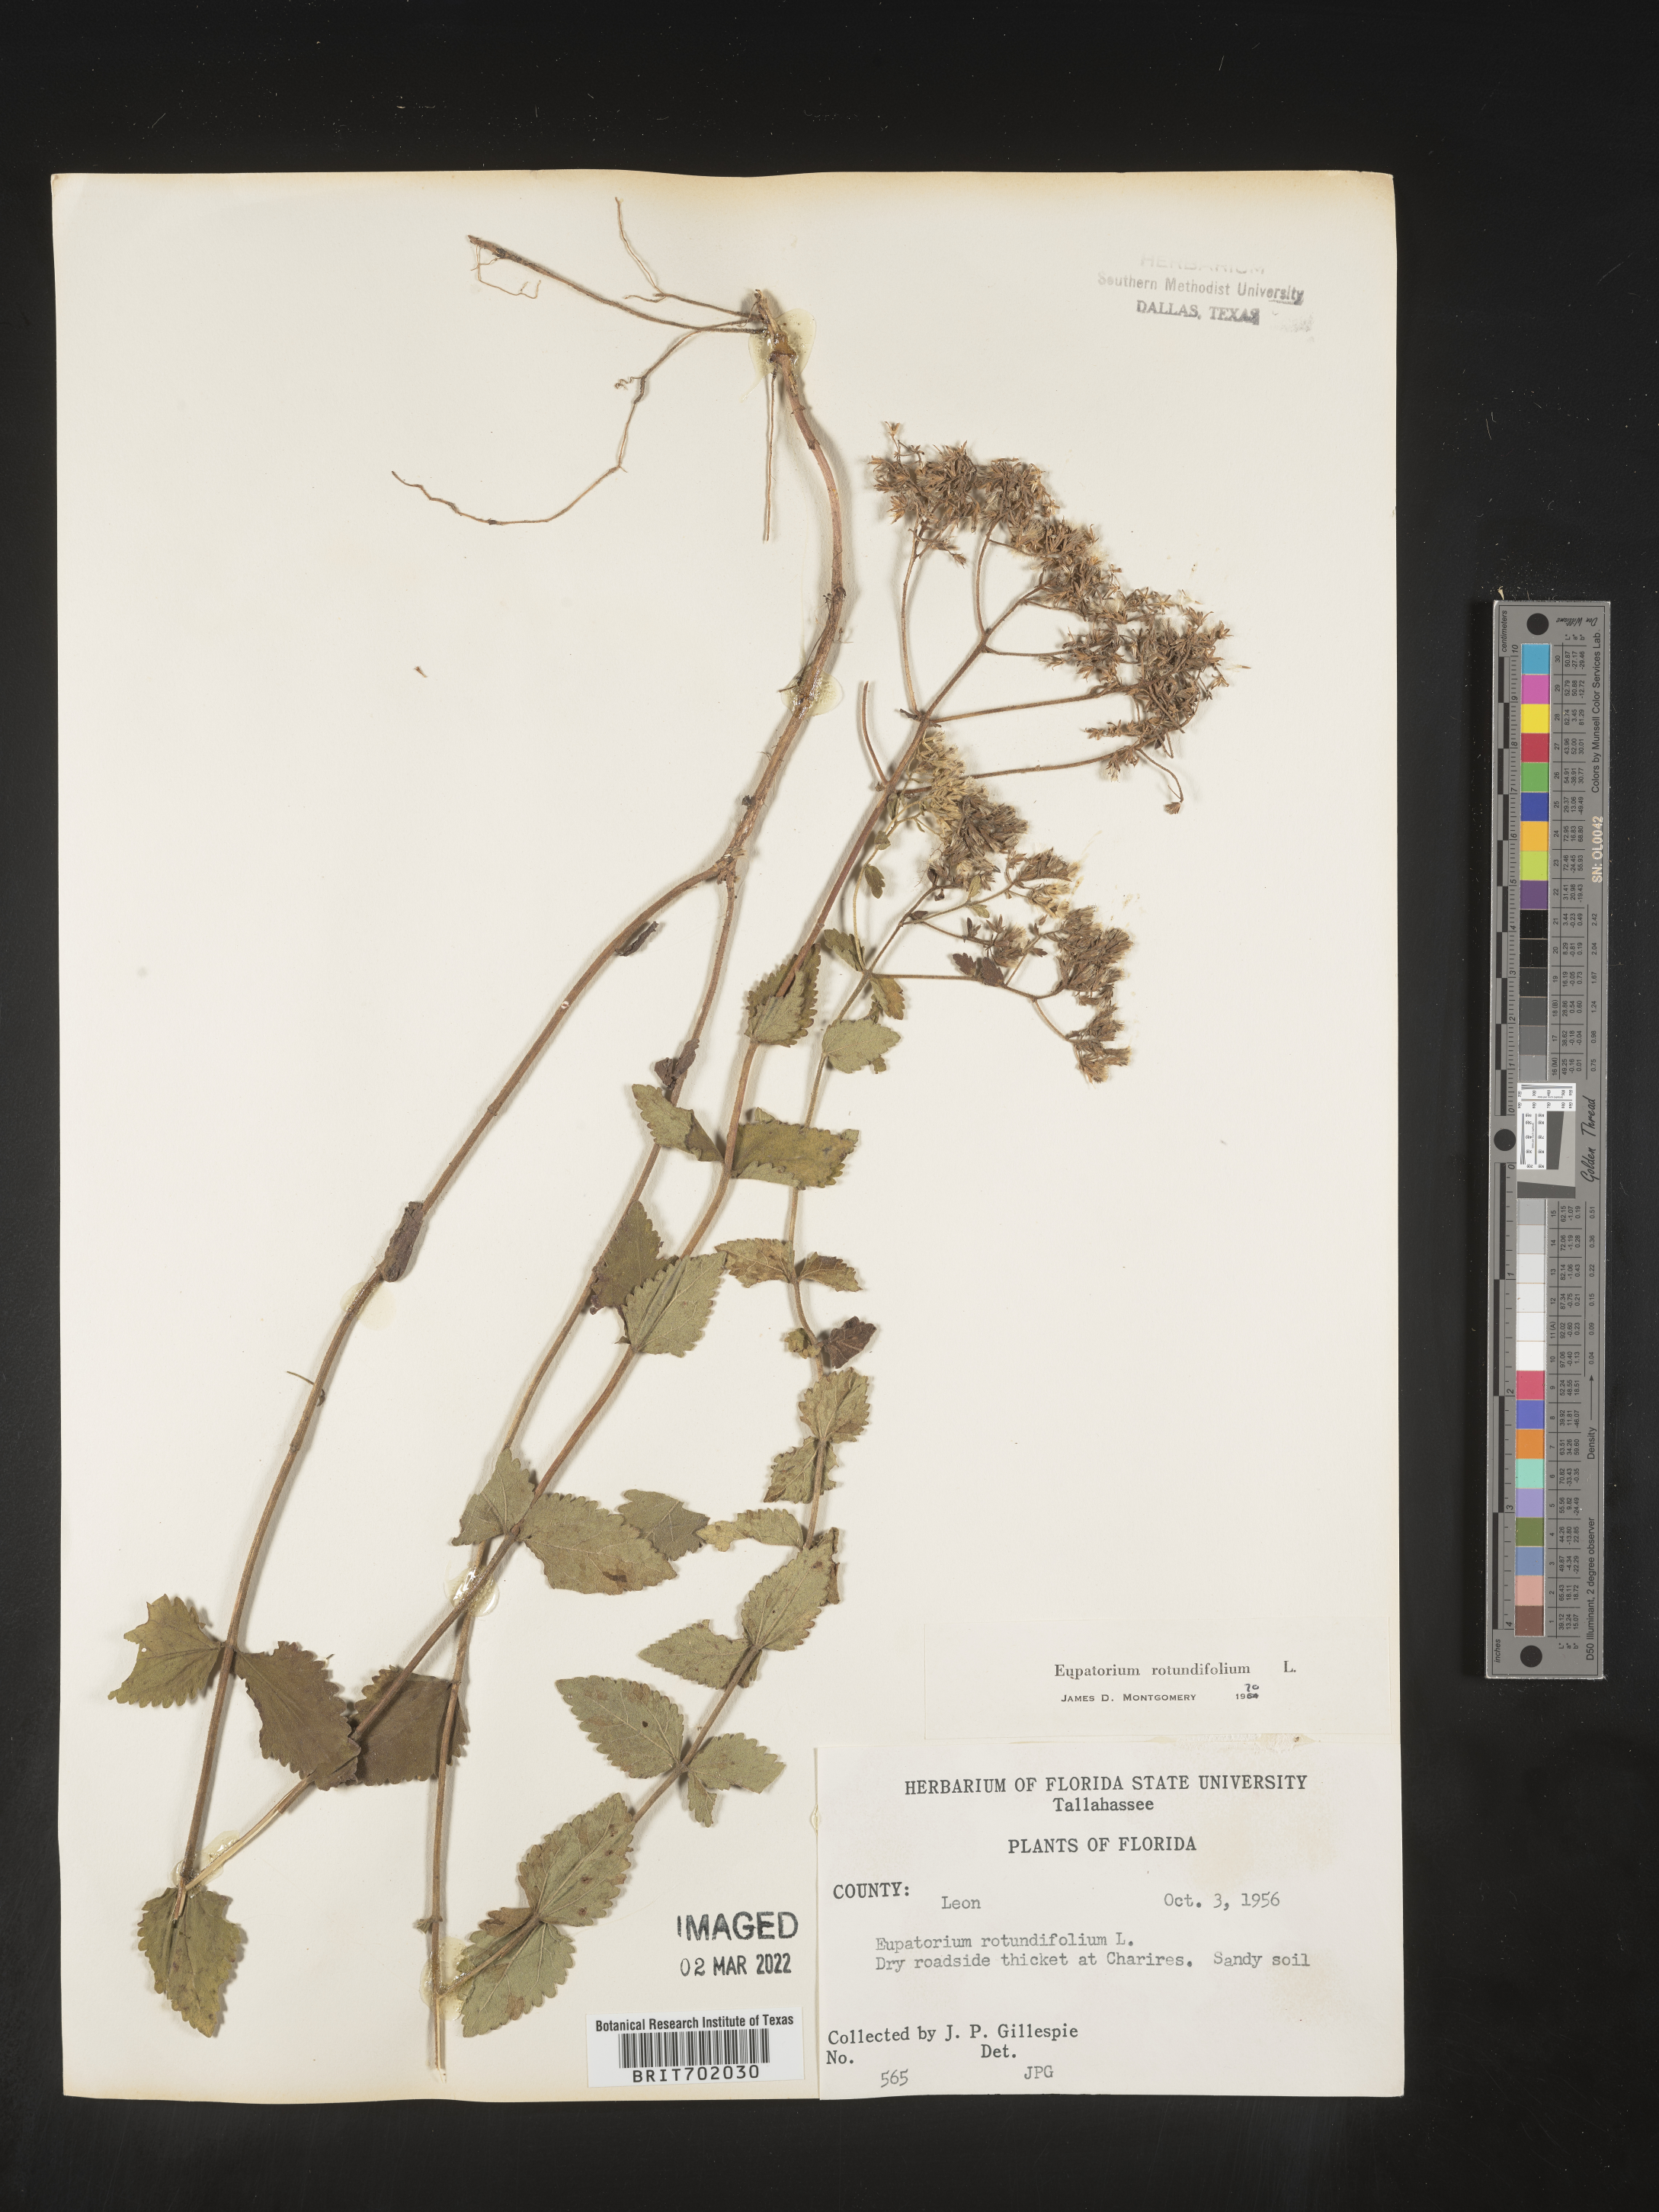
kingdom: Plantae
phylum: Tracheophyta
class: Magnoliopsida
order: Asterales
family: Asteraceae
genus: Eupatorium
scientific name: Eupatorium rotundifolium
